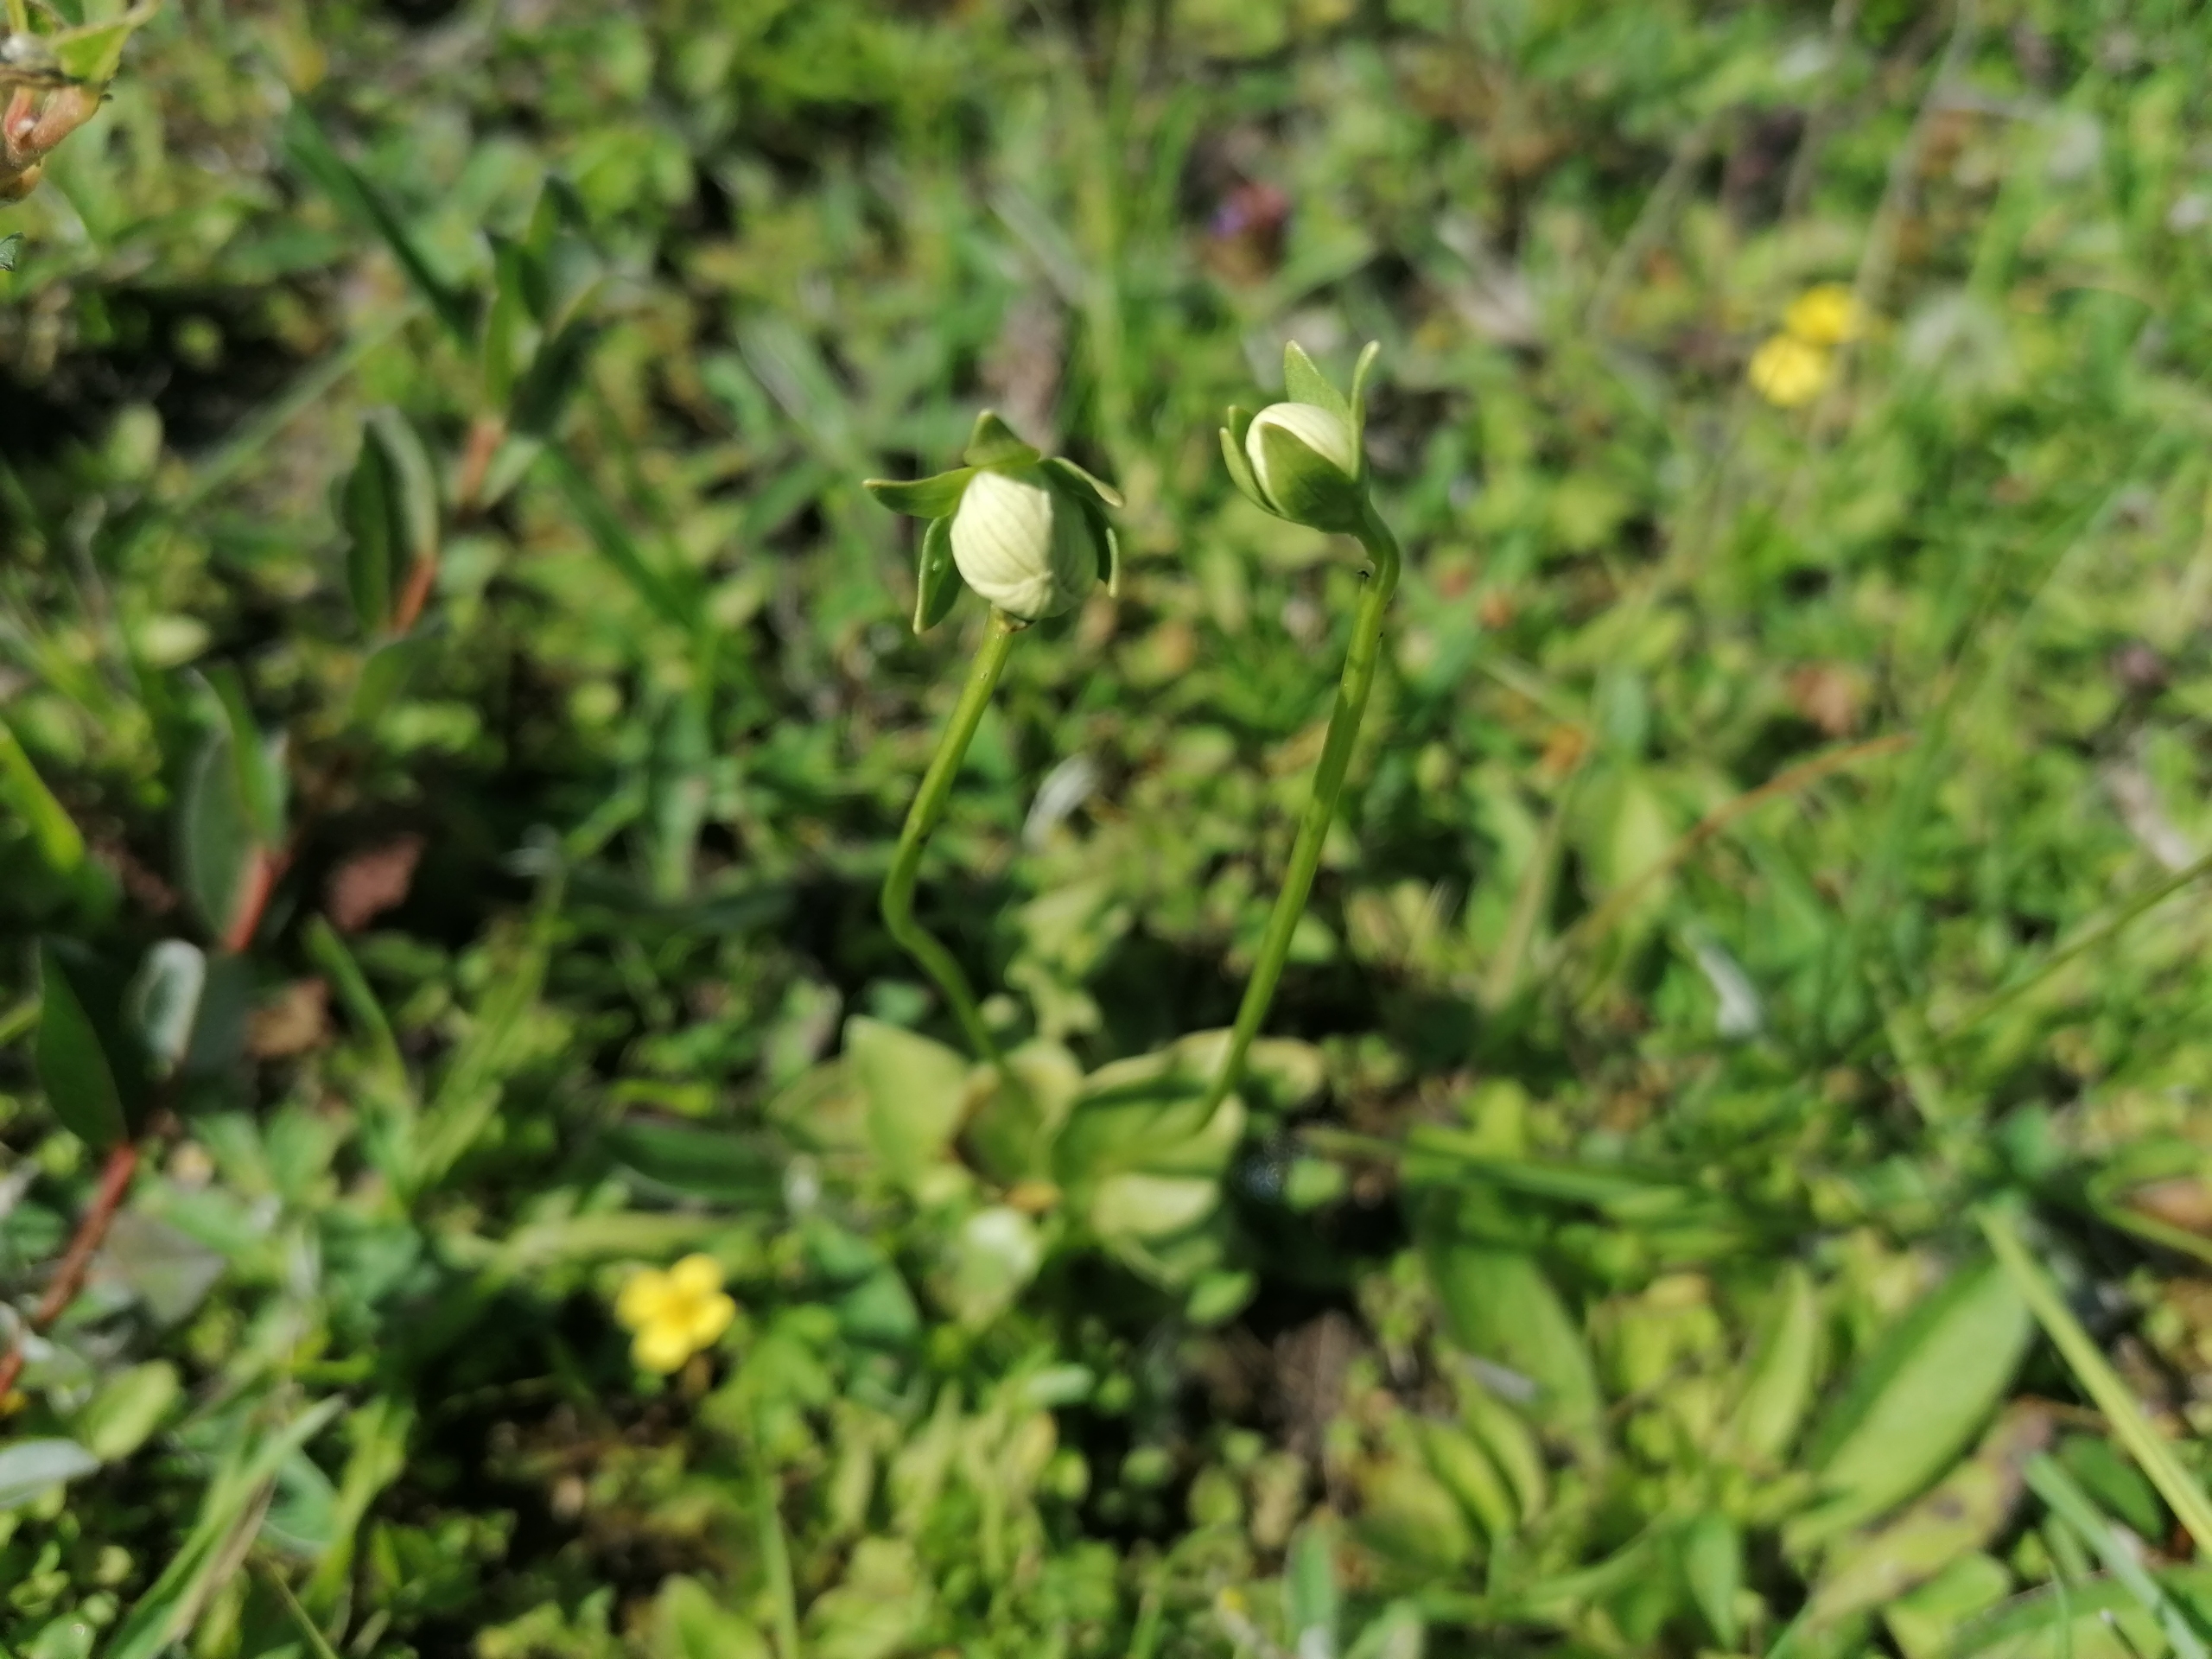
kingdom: Plantae
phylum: Tracheophyta
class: Magnoliopsida
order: Celastrales
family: Parnassiaceae
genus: Parnassia
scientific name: Parnassia palustris
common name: Leverurt
